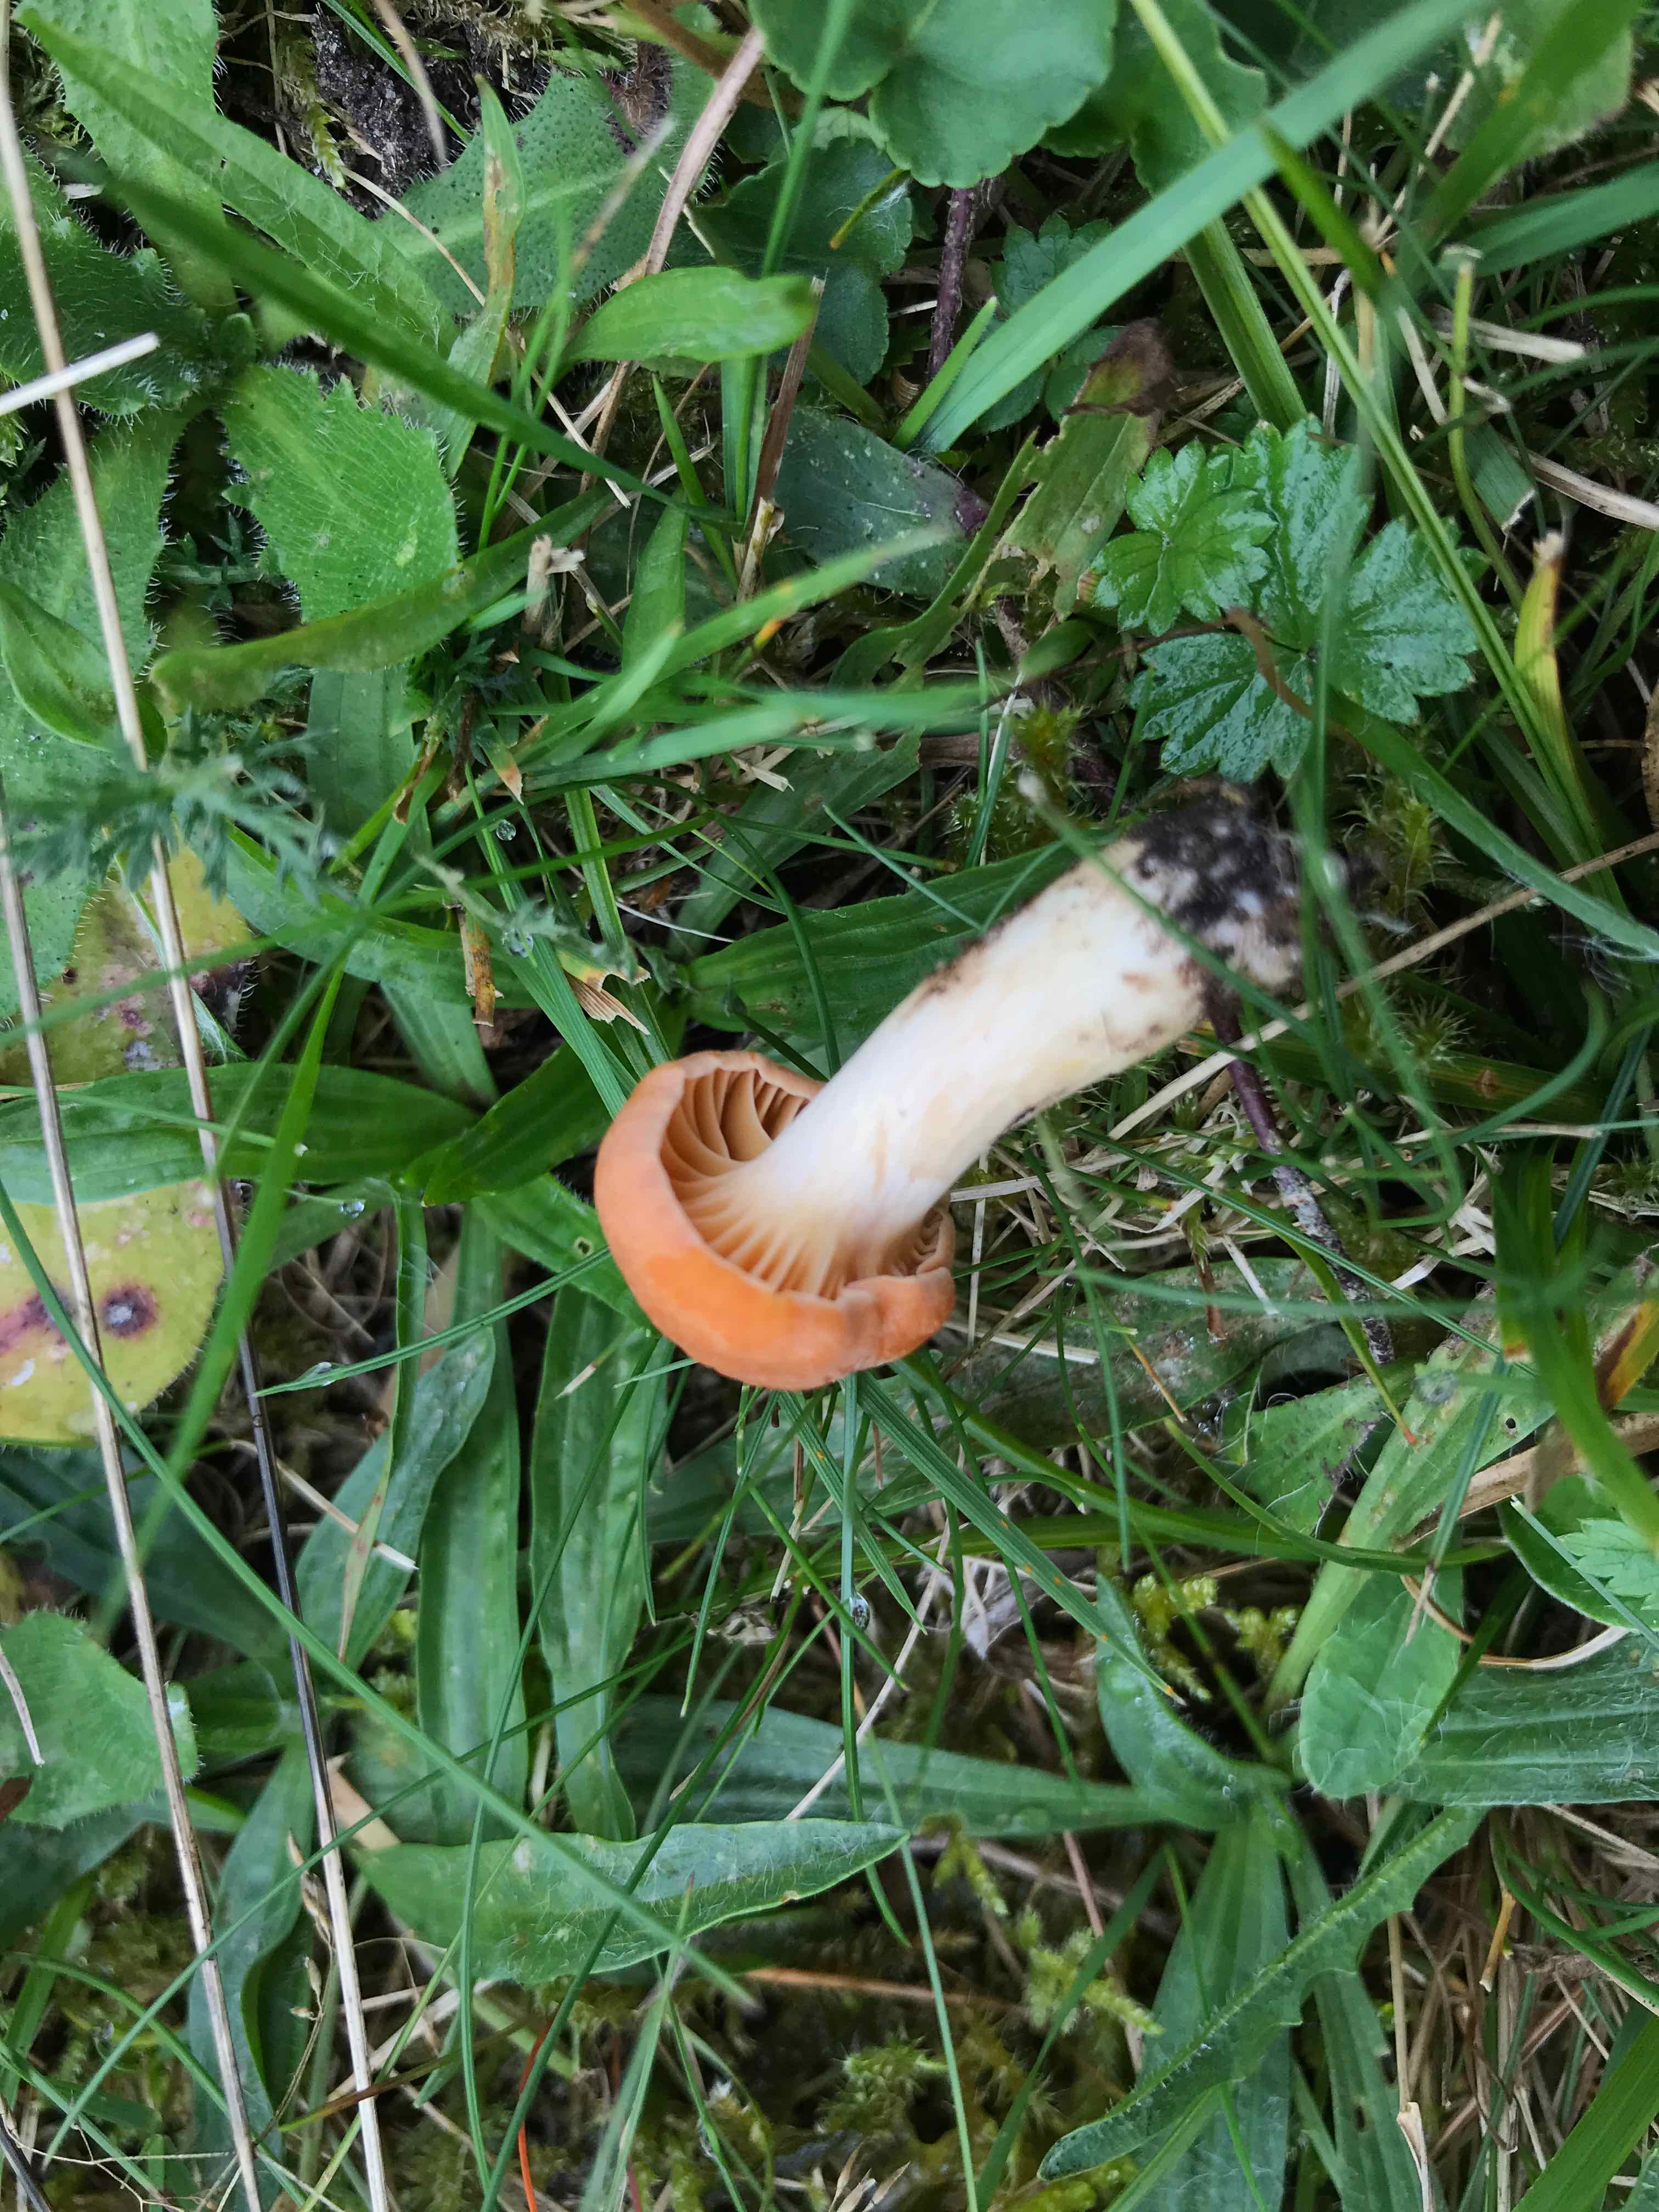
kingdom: Fungi
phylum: Basidiomycota
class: Agaricomycetes
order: Agaricales
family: Hygrophoraceae
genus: Cuphophyllus
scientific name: Cuphophyllus pratensis
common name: eng-vokshat
